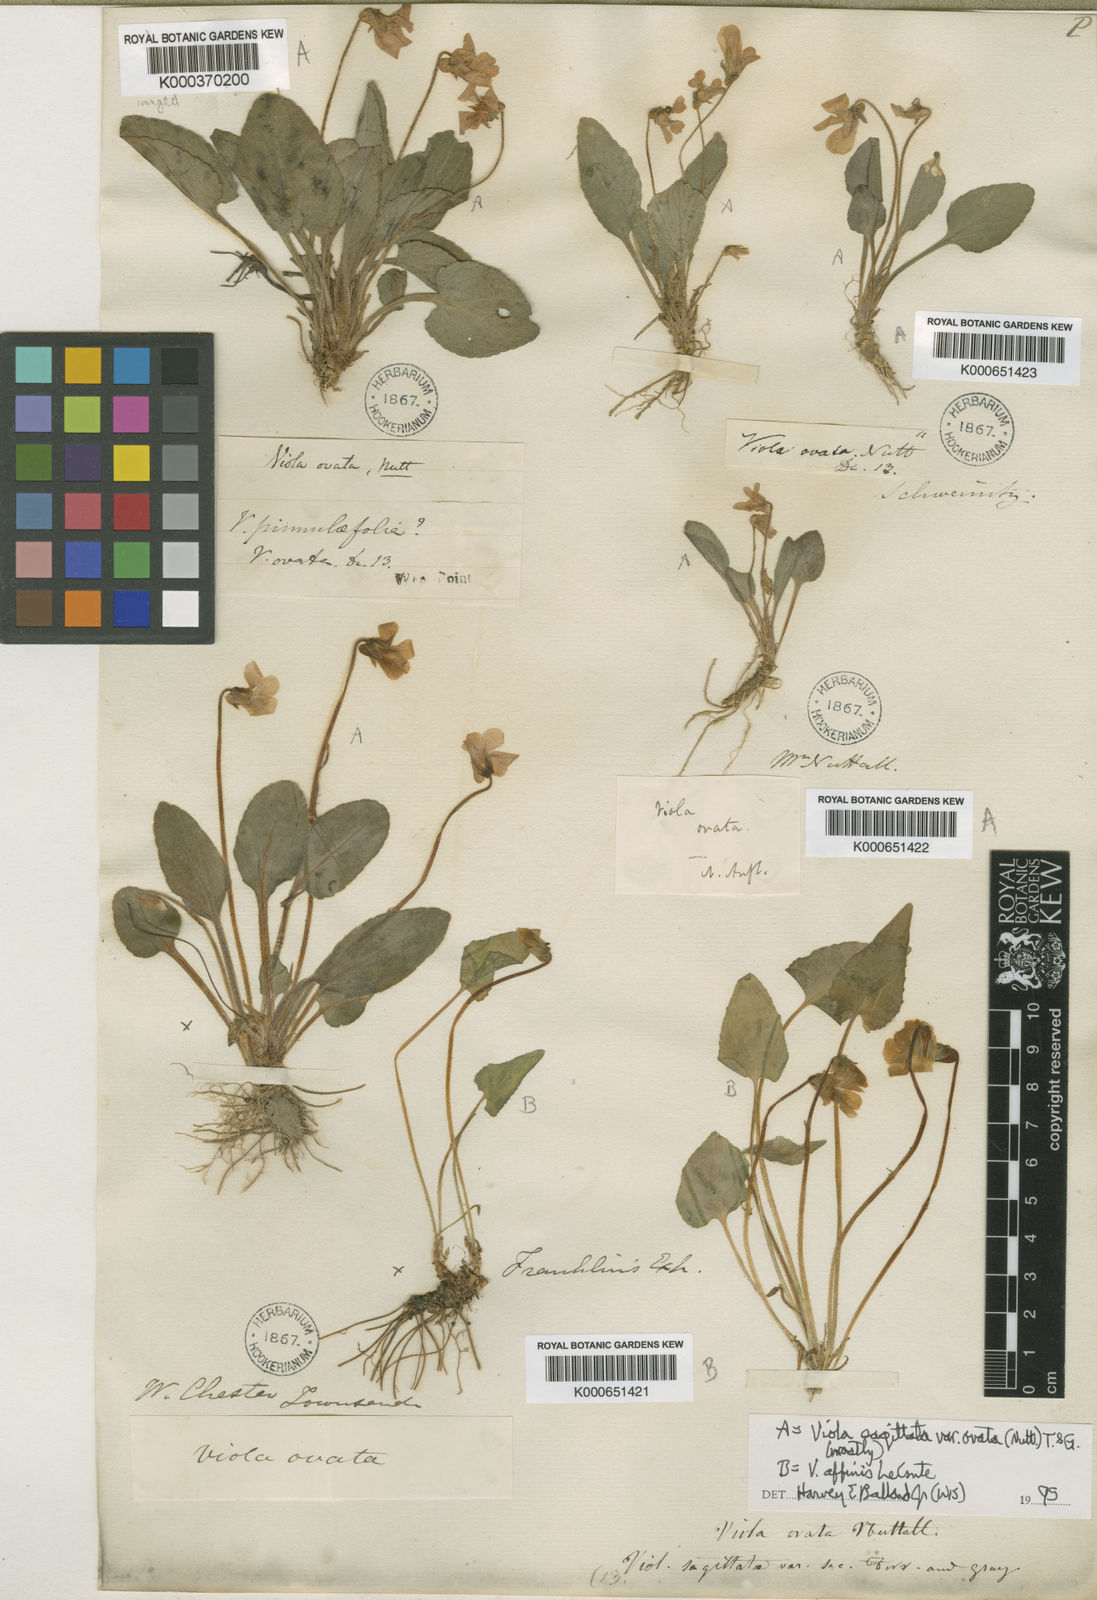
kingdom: Plantae
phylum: Tracheophyta
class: Magnoliopsida
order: Malpighiales
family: Violaceae
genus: Viola
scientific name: Viola primulifolia
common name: Primrose-leaf violet
